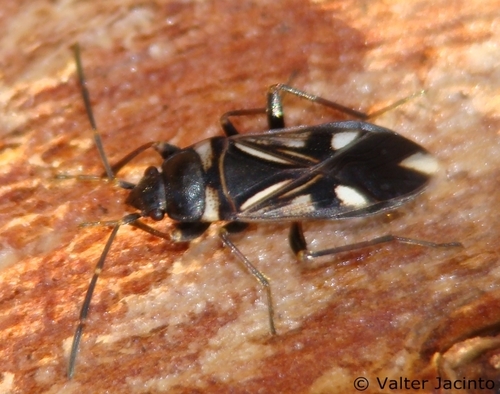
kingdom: Animalia
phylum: Arthropoda
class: Insecta
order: Hemiptera
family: Rhyparochromidae
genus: Raglius
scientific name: Raglius alboacuminatus
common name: Dirt-colored seed bug
